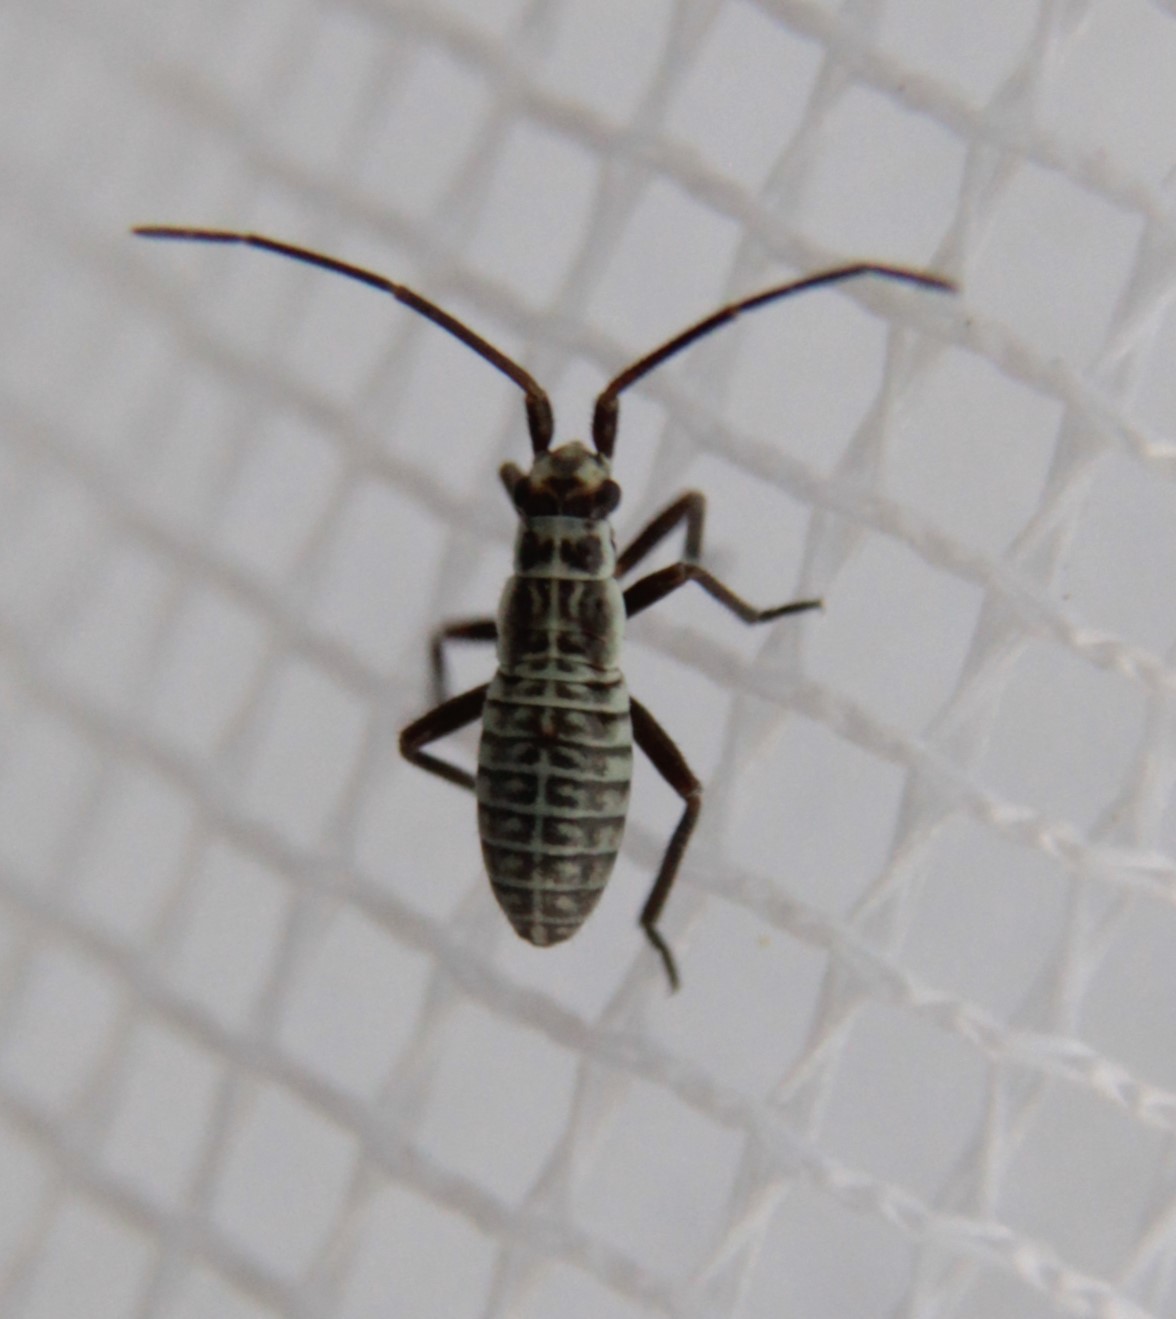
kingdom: Animalia
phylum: Arthropoda
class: Insecta
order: Hemiptera
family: Miridae
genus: Leptopterna
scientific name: Leptopterna dolabrata
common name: Meadow plant bug
